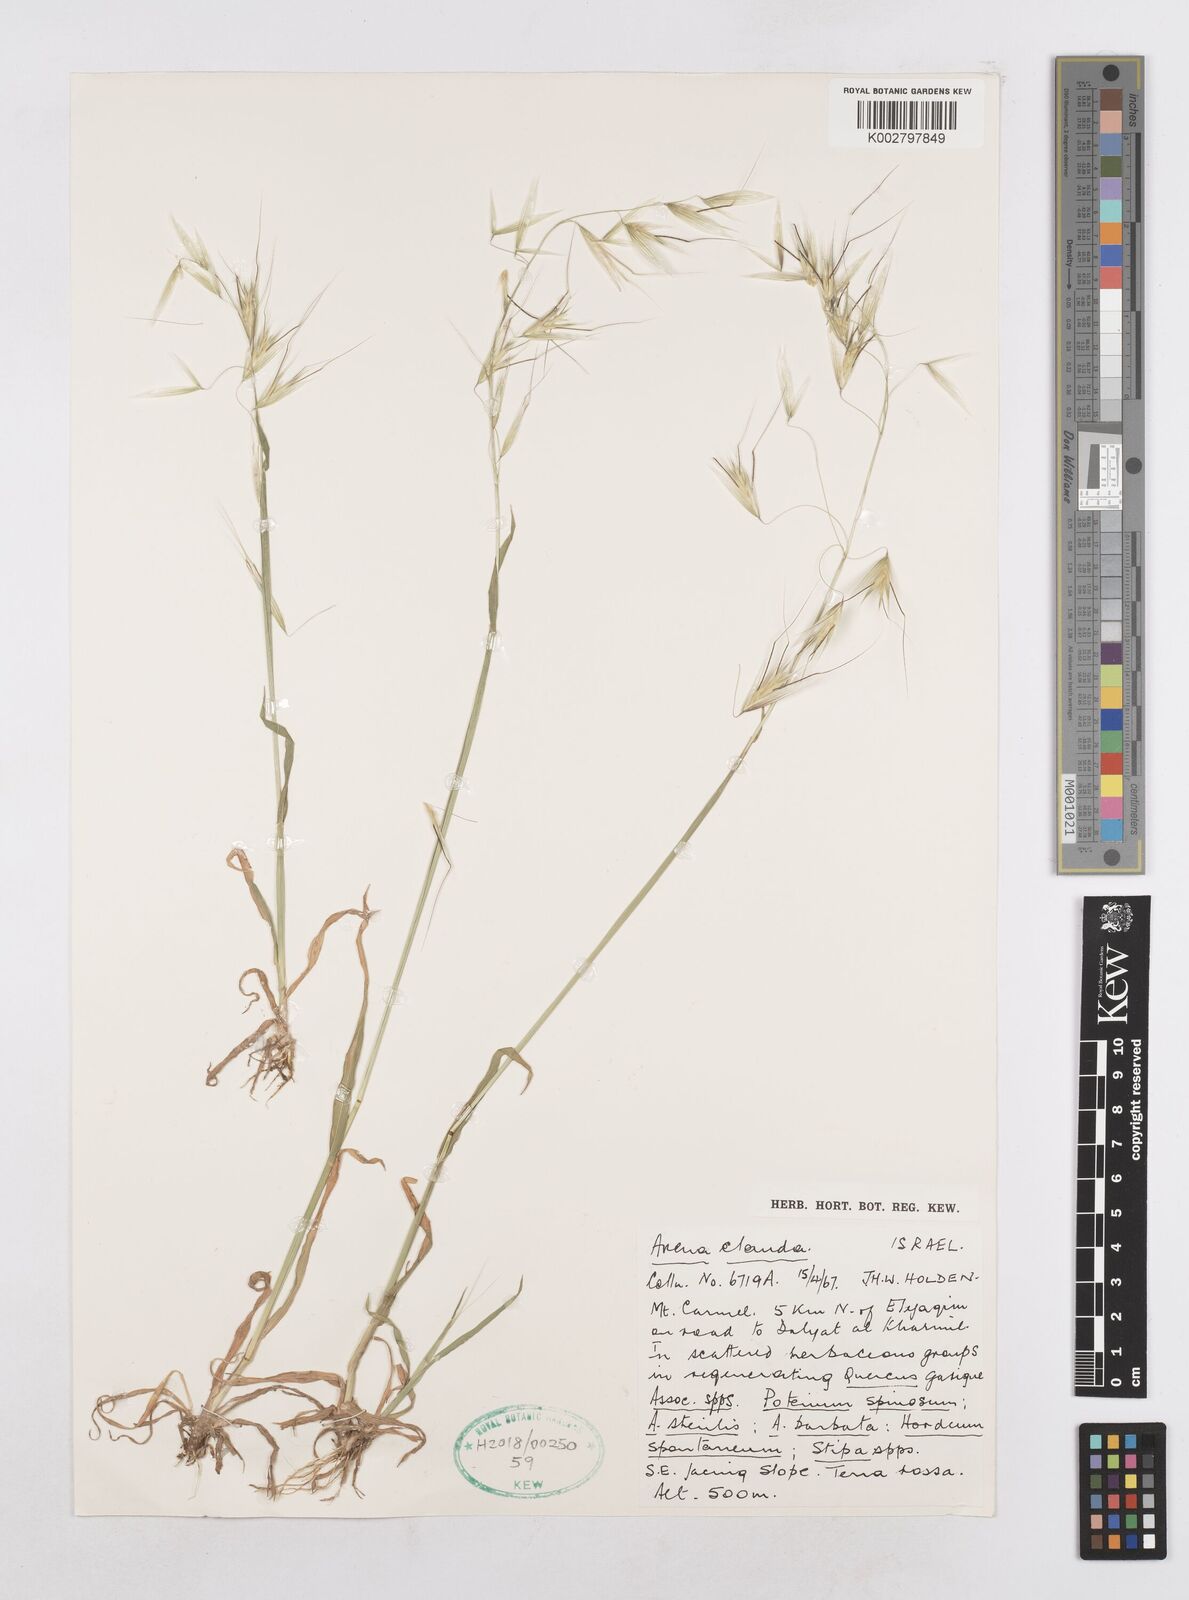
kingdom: Plantae
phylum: Tracheophyta
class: Liliopsida
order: Poales
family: Poaceae
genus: Avena
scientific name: Avena clauda
